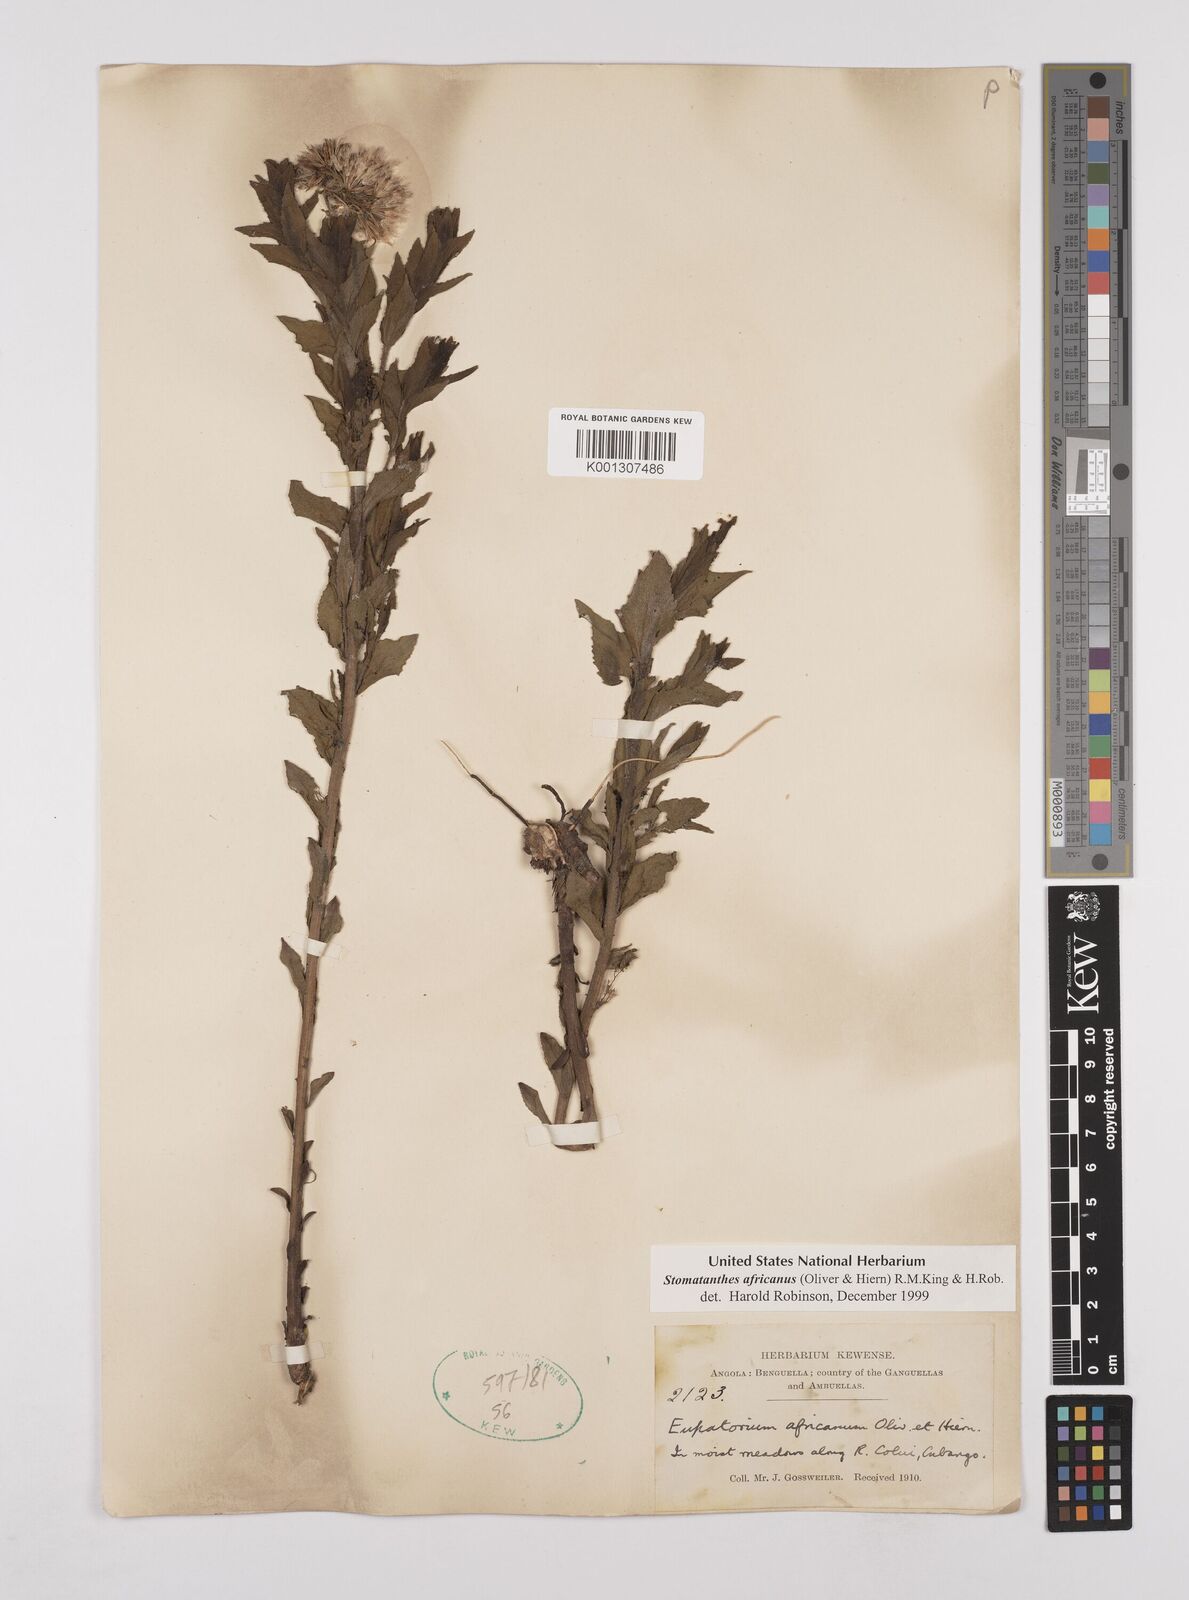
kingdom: Plantae
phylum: Tracheophyta
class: Magnoliopsida
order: Asterales
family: Asteraceae
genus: Stomatanthes
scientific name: Stomatanthes africanus
